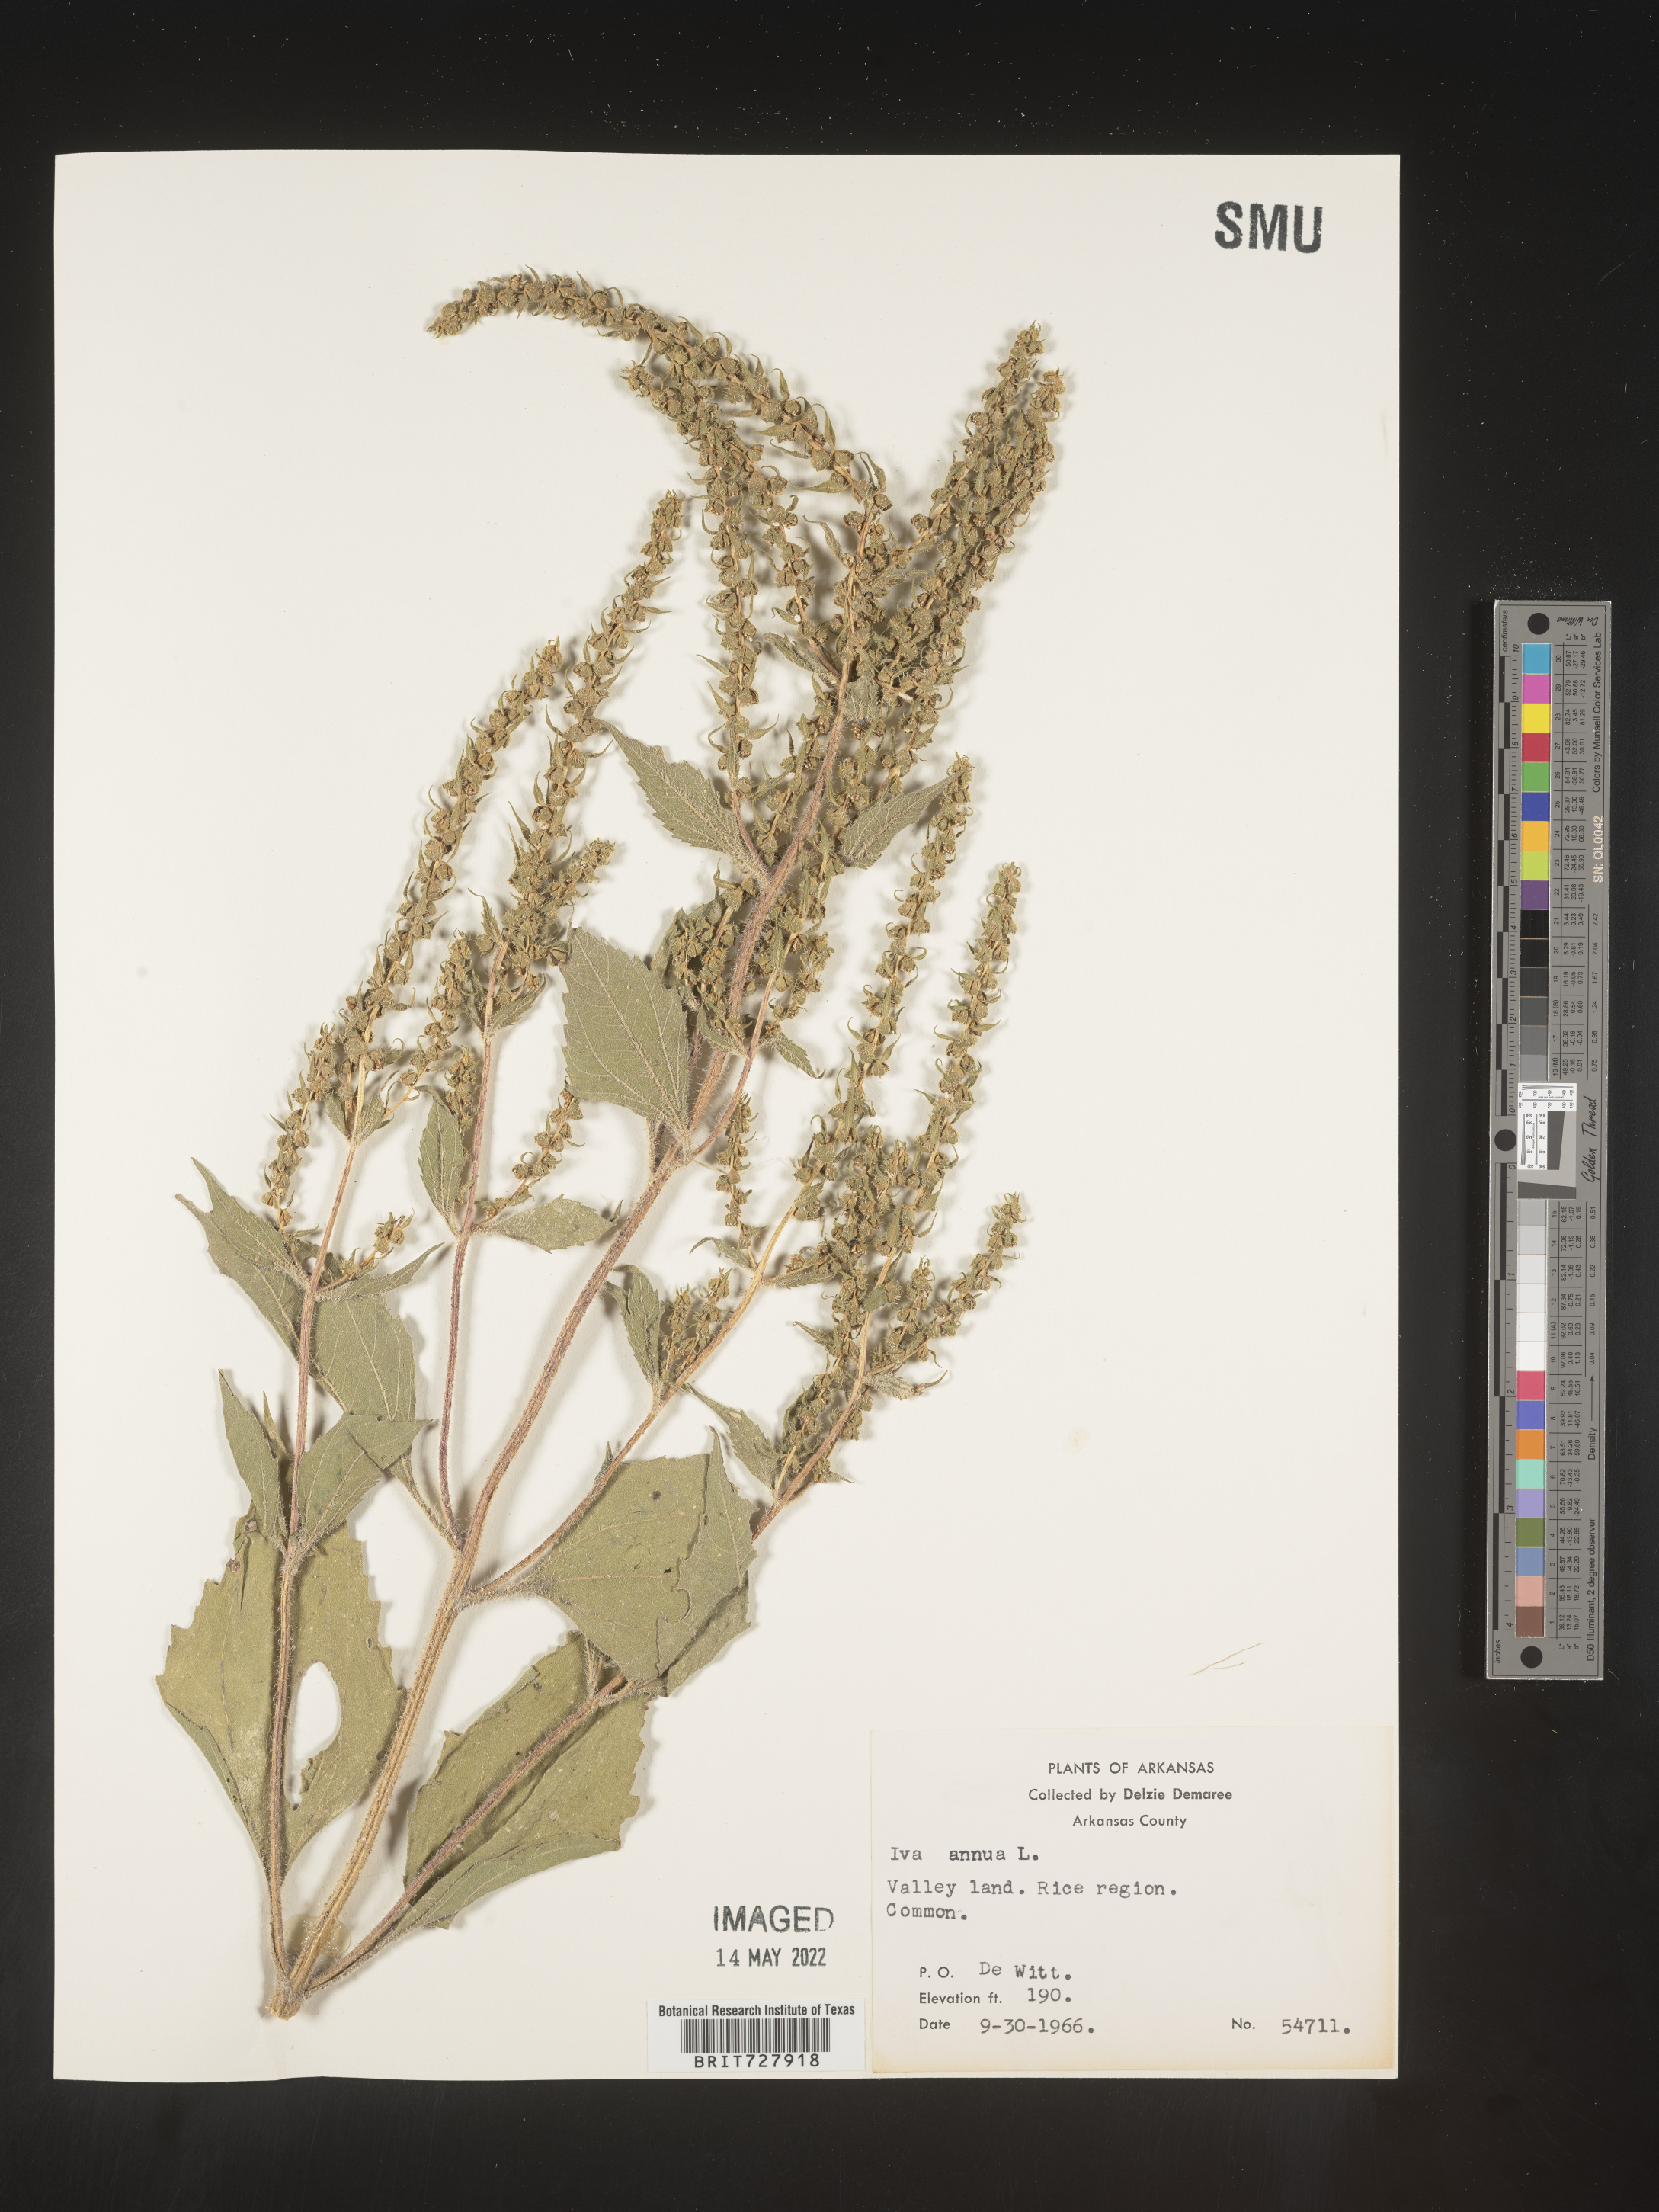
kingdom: Plantae
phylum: Tracheophyta
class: Magnoliopsida
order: Asterales
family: Asteraceae
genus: Iva
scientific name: Iva annua
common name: Marsh-elder
